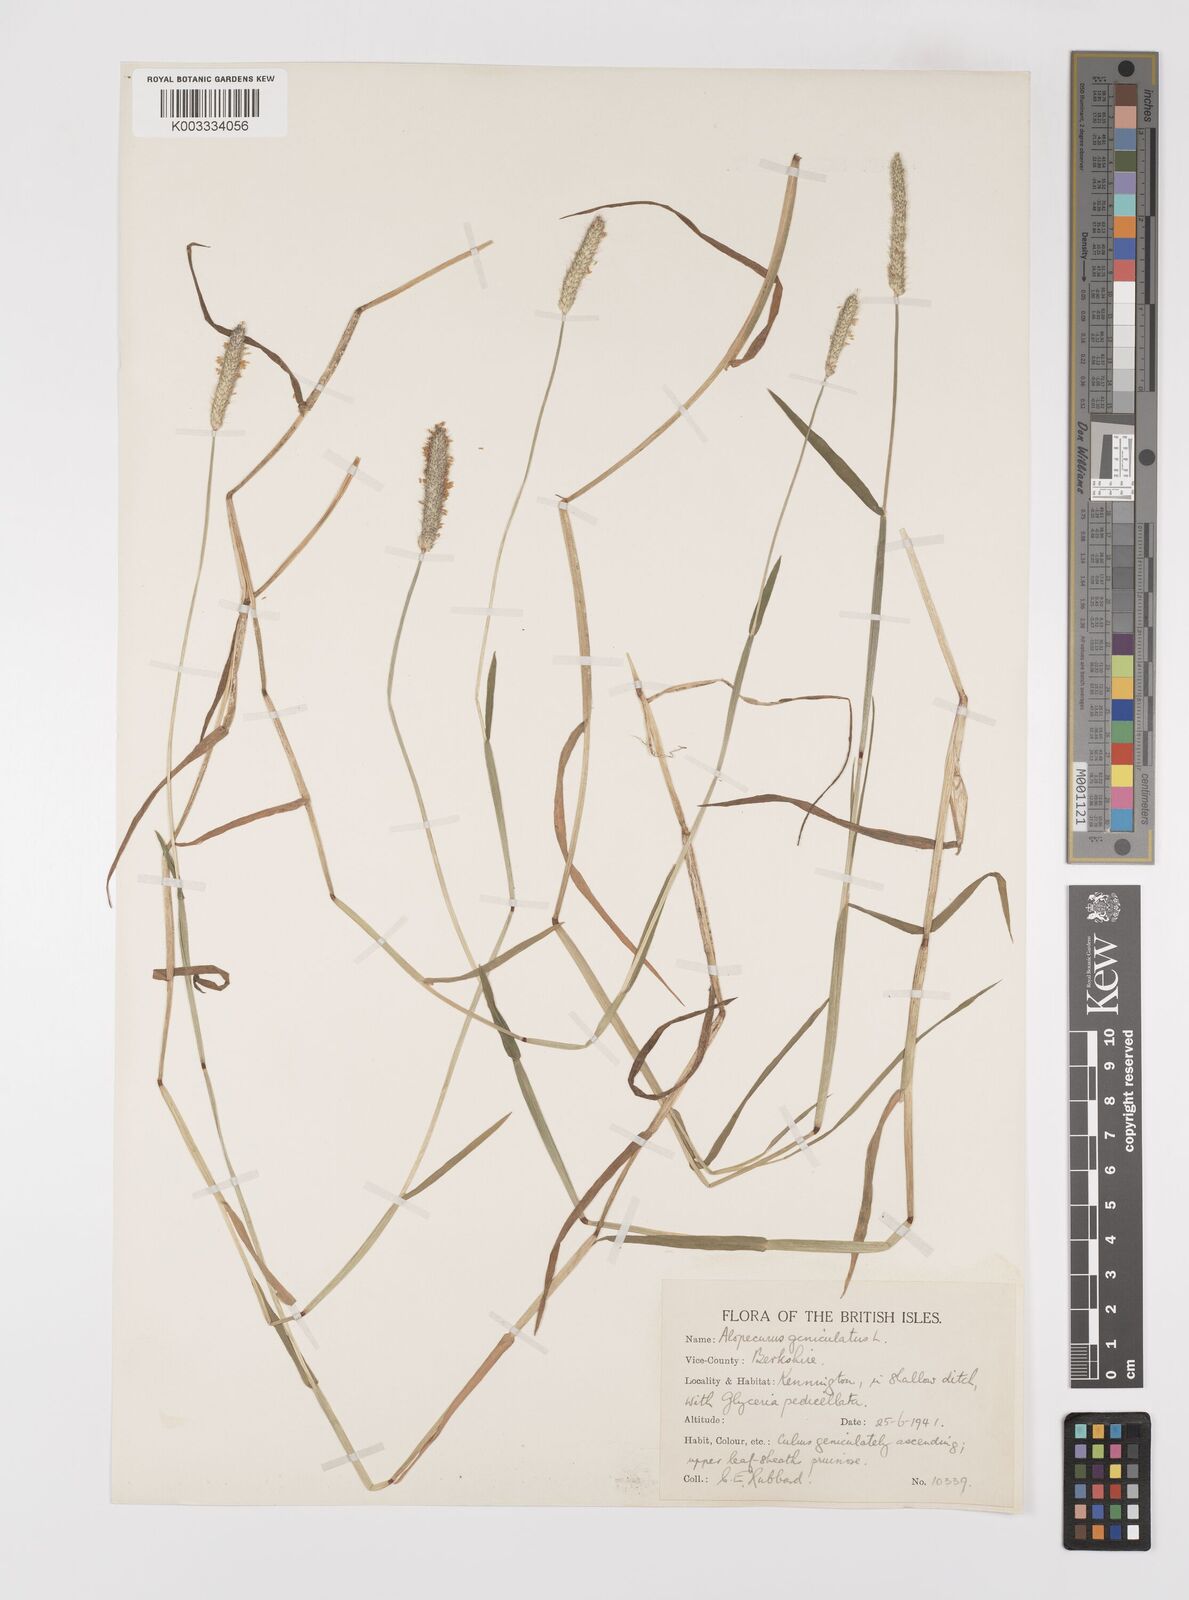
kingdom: Plantae
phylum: Tracheophyta
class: Liliopsida
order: Poales
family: Poaceae
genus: Alopecurus
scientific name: Alopecurus geniculatus
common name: Water foxtail
